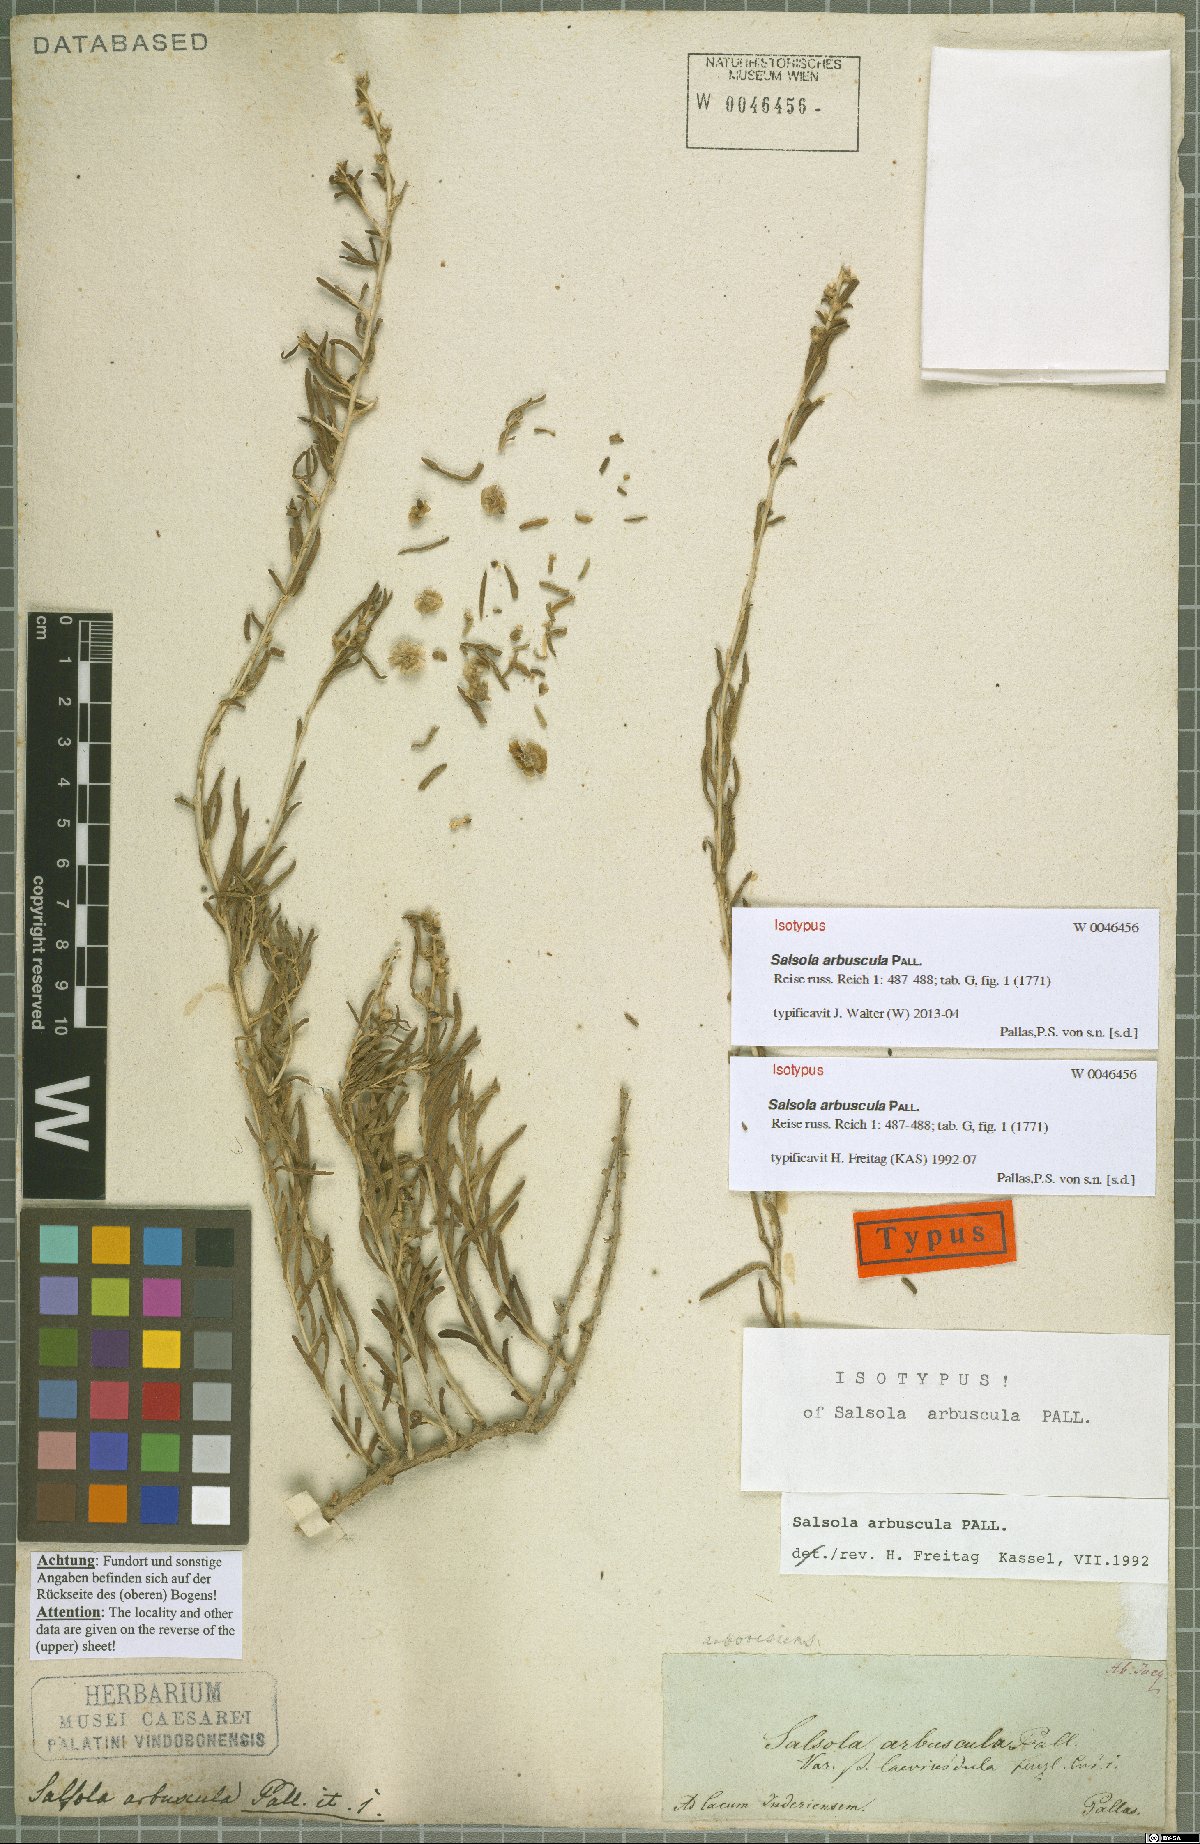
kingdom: Plantae
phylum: Tracheophyta
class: Magnoliopsida
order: Caryophyllales
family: Amaranthaceae
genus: Xylosalsola
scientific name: Xylosalsola arbuscula
